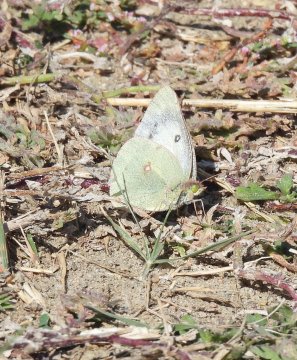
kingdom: Animalia
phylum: Arthropoda
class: Insecta
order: Lepidoptera
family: Pieridae
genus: Colias
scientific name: Colias philodice
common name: Clouded Sulphur
